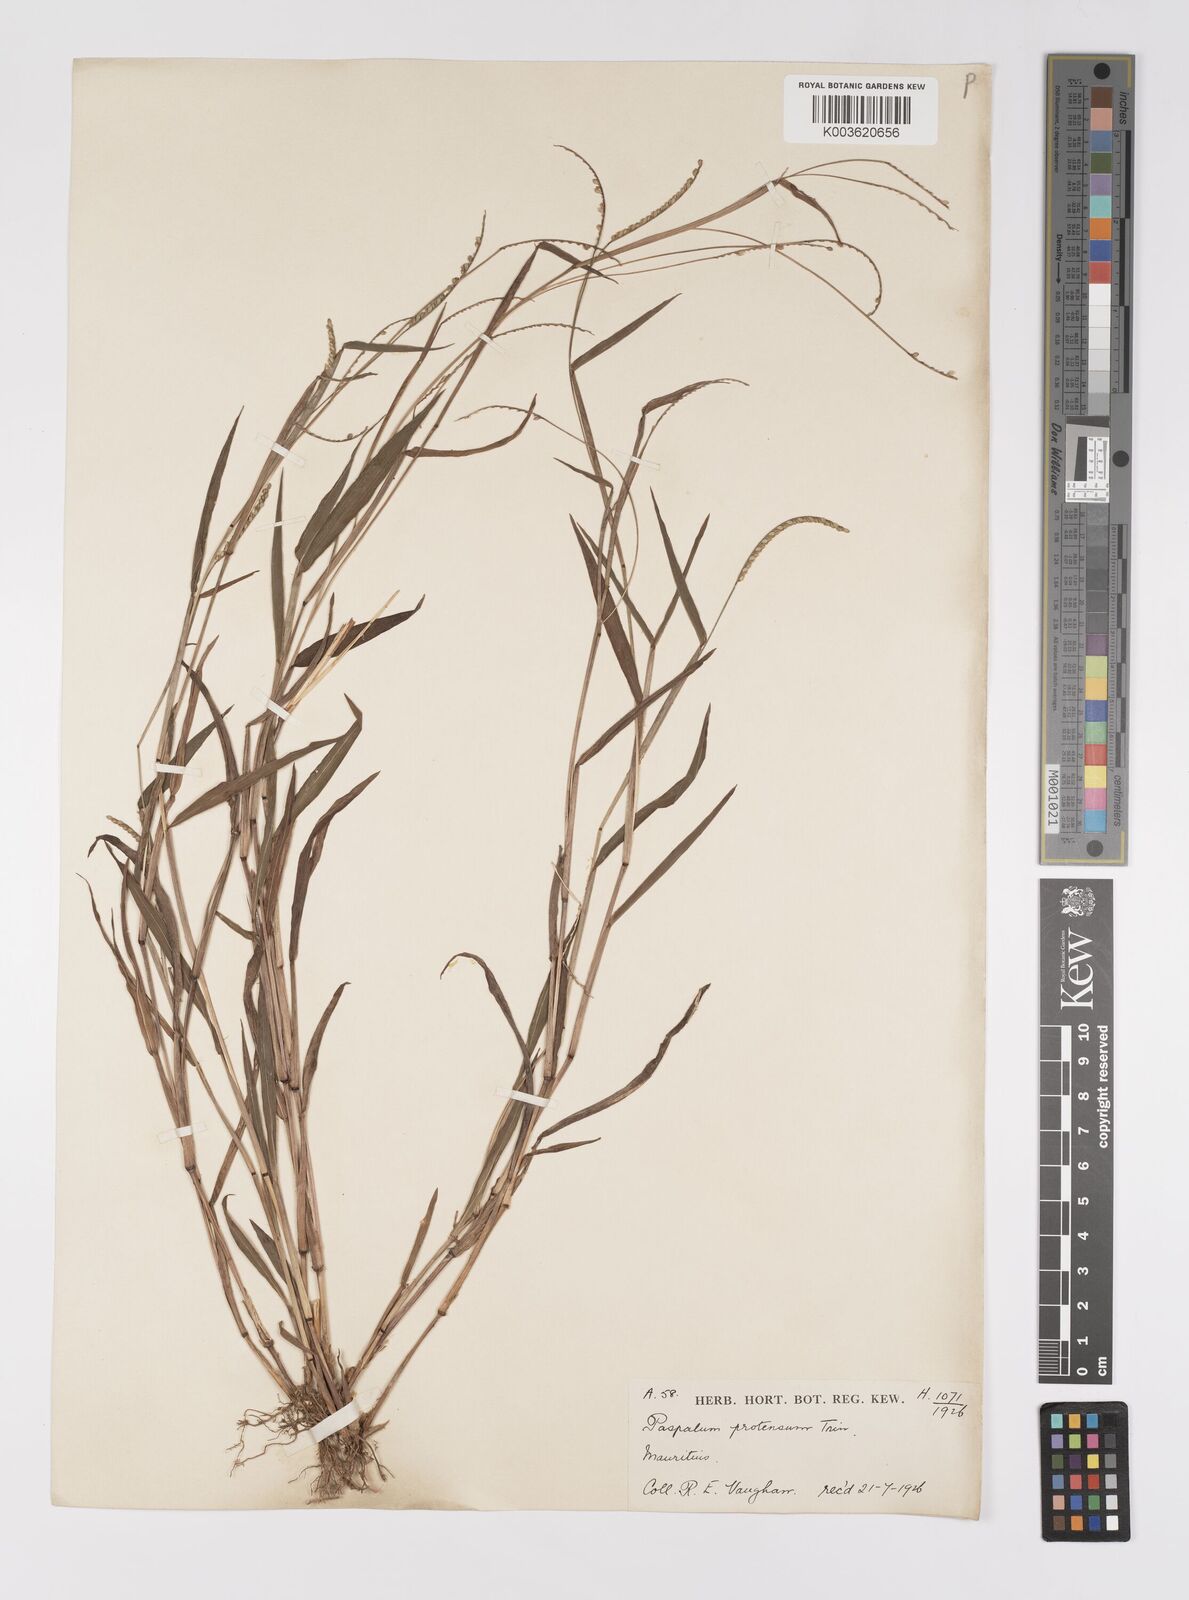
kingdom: Plantae
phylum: Tracheophyta
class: Liliopsida
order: Poales
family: Poaceae
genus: Paspalum
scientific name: Paspalum nutans
